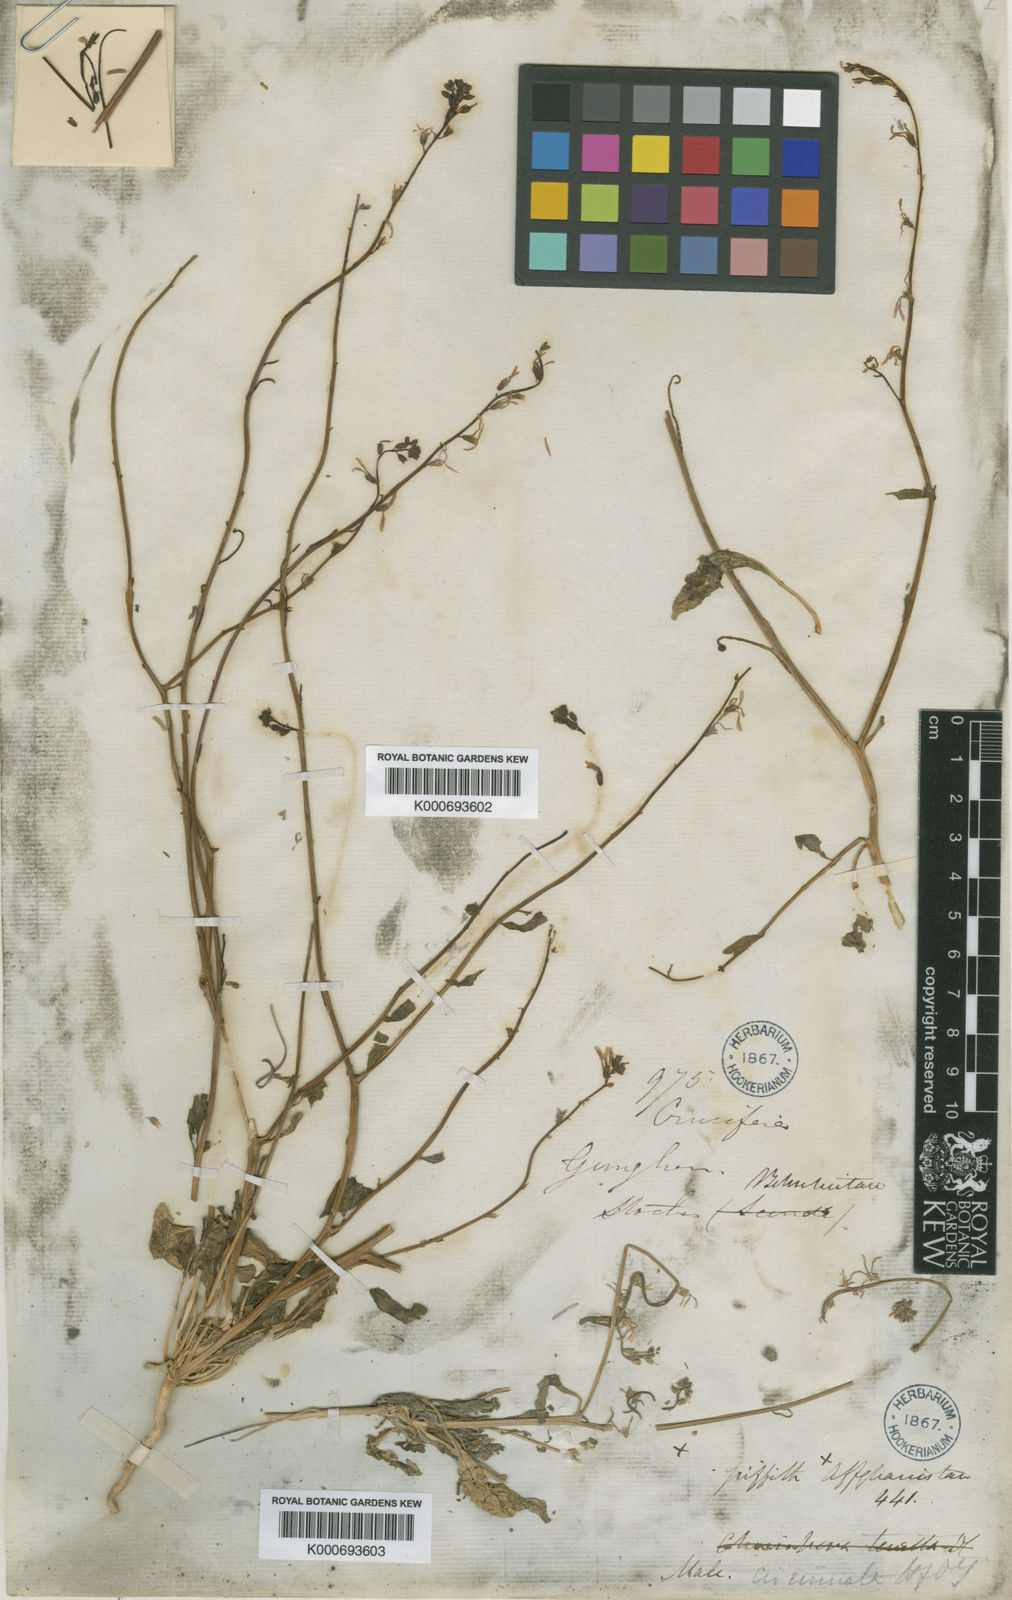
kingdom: Plantae
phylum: Tracheophyta
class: Magnoliopsida
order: Brassicales
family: Brassicaceae
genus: Strigosella
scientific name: Strigosella grandiflora
